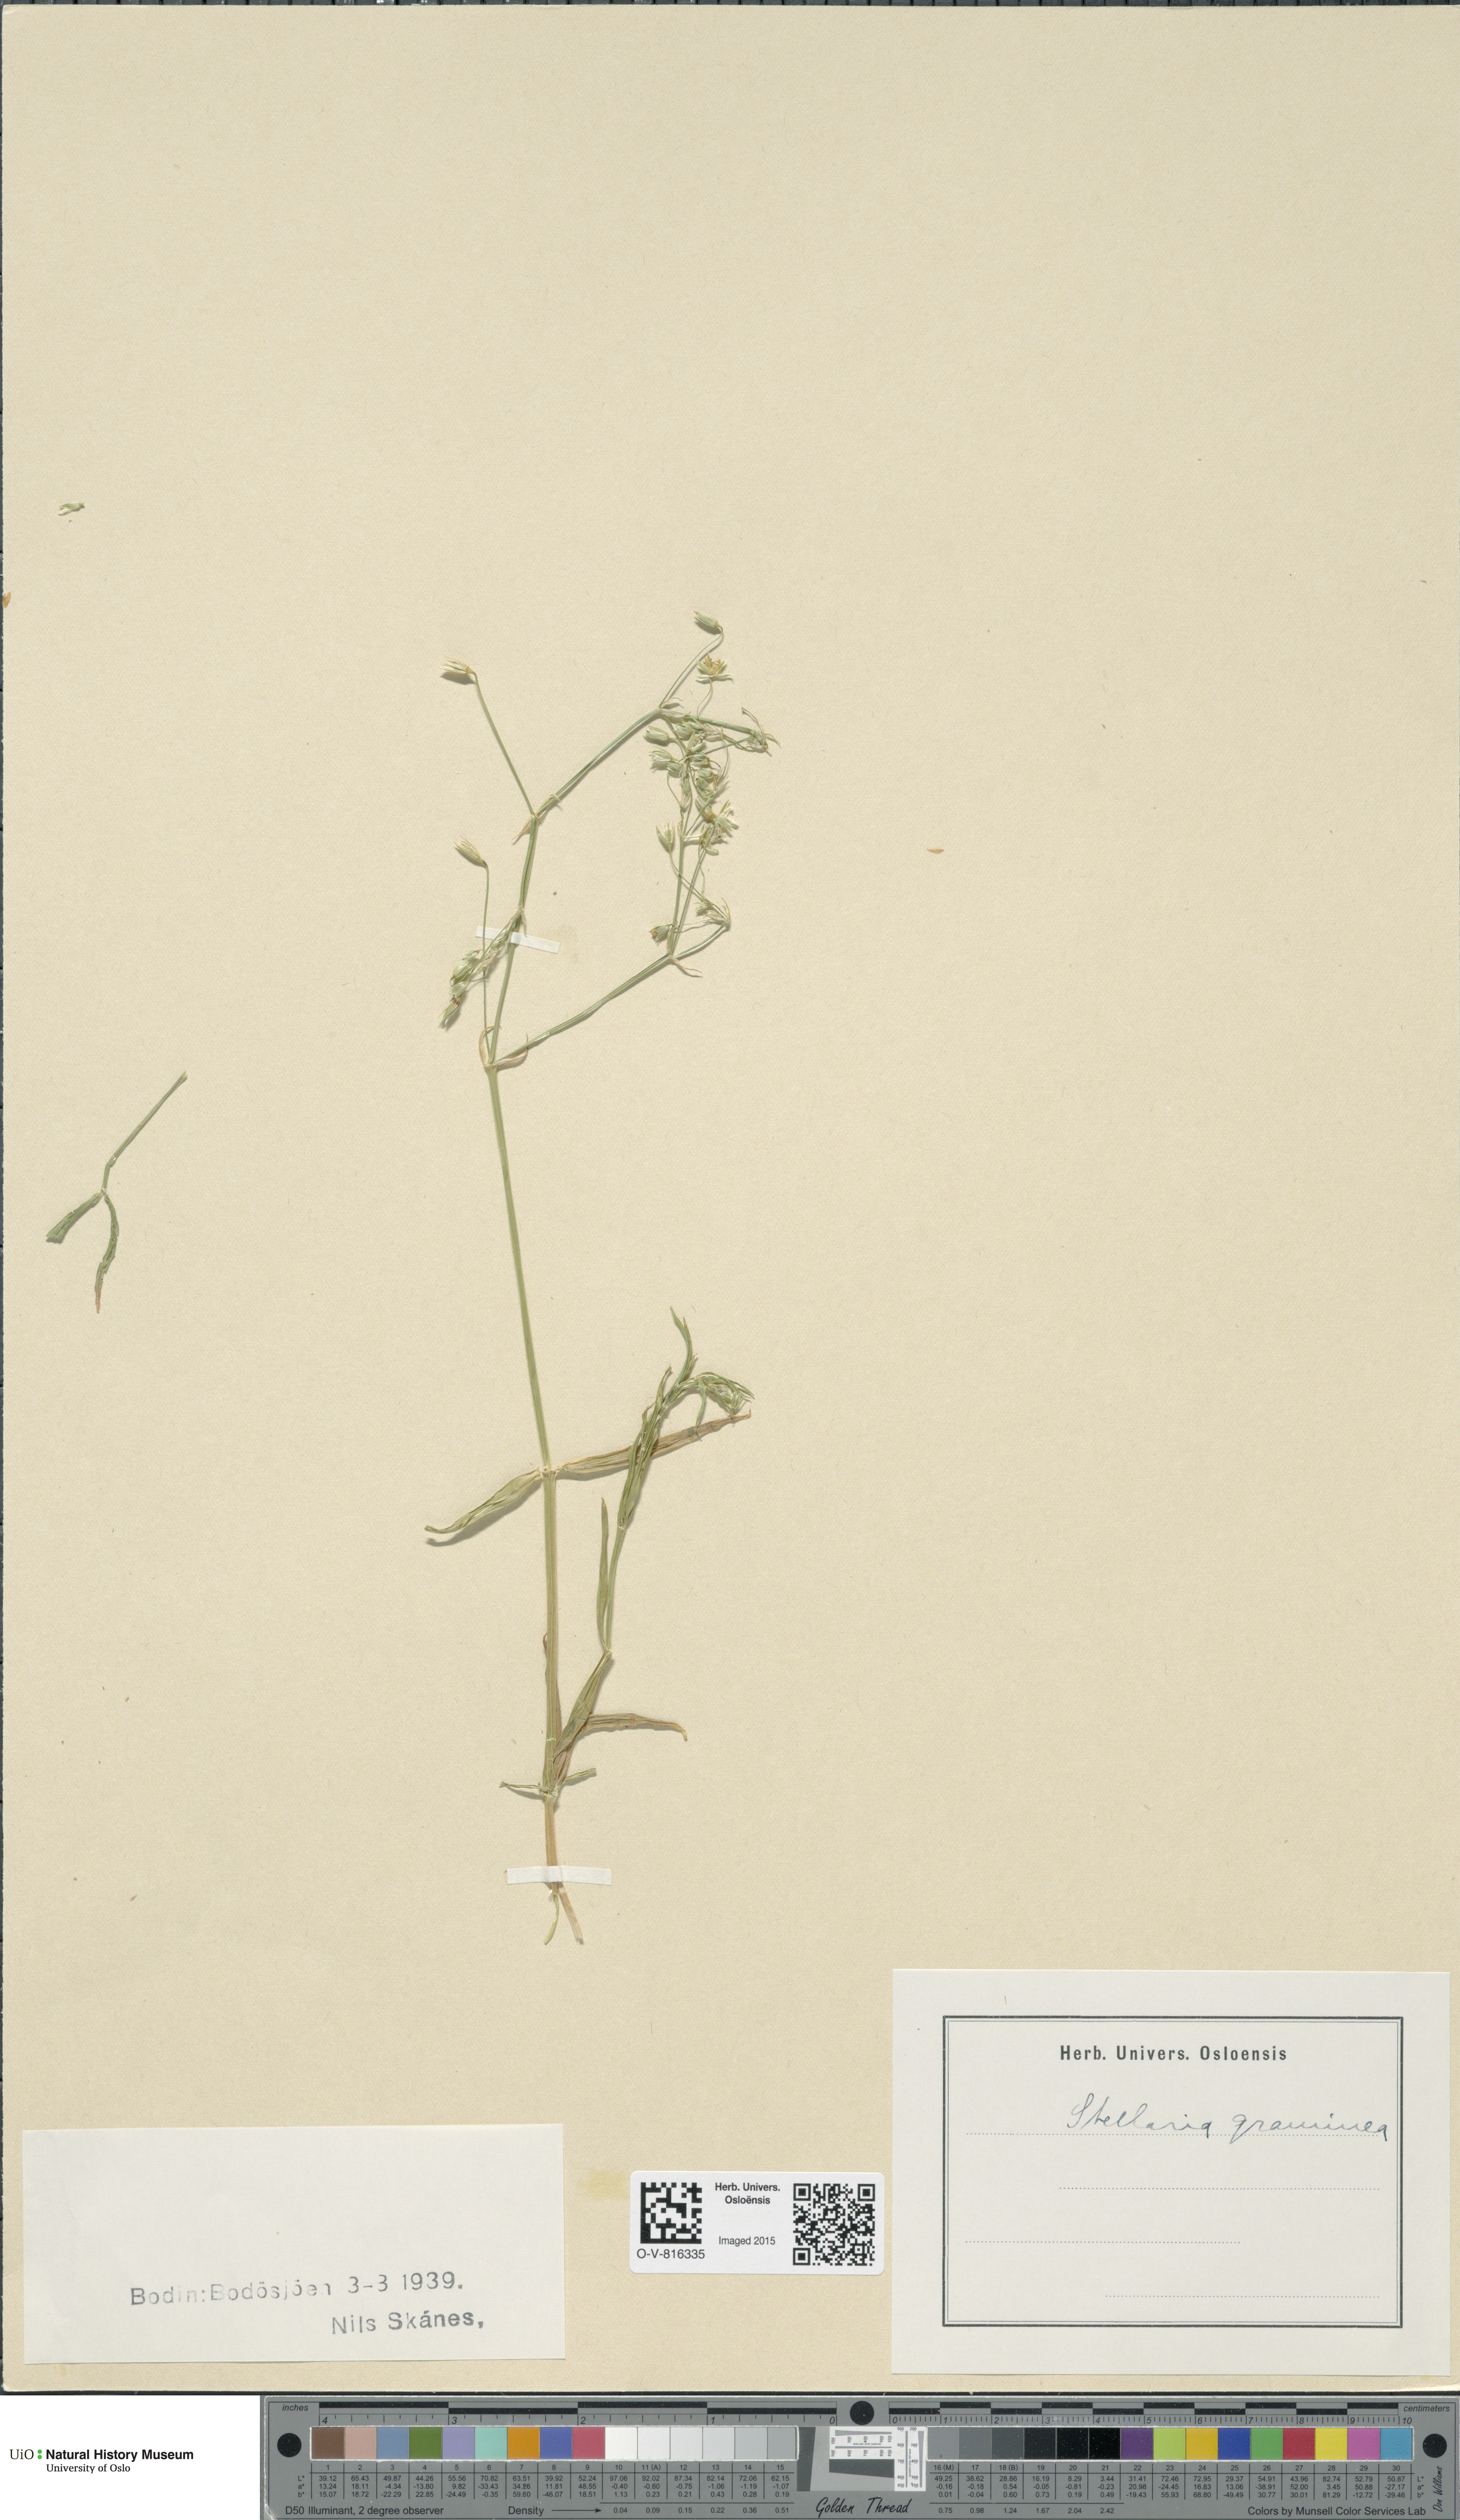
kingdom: Plantae
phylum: Tracheophyta
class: Magnoliopsida
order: Caryophyllales
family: Caryophyllaceae
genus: Stellaria
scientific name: Stellaria graminea
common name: Grass-like starwort
